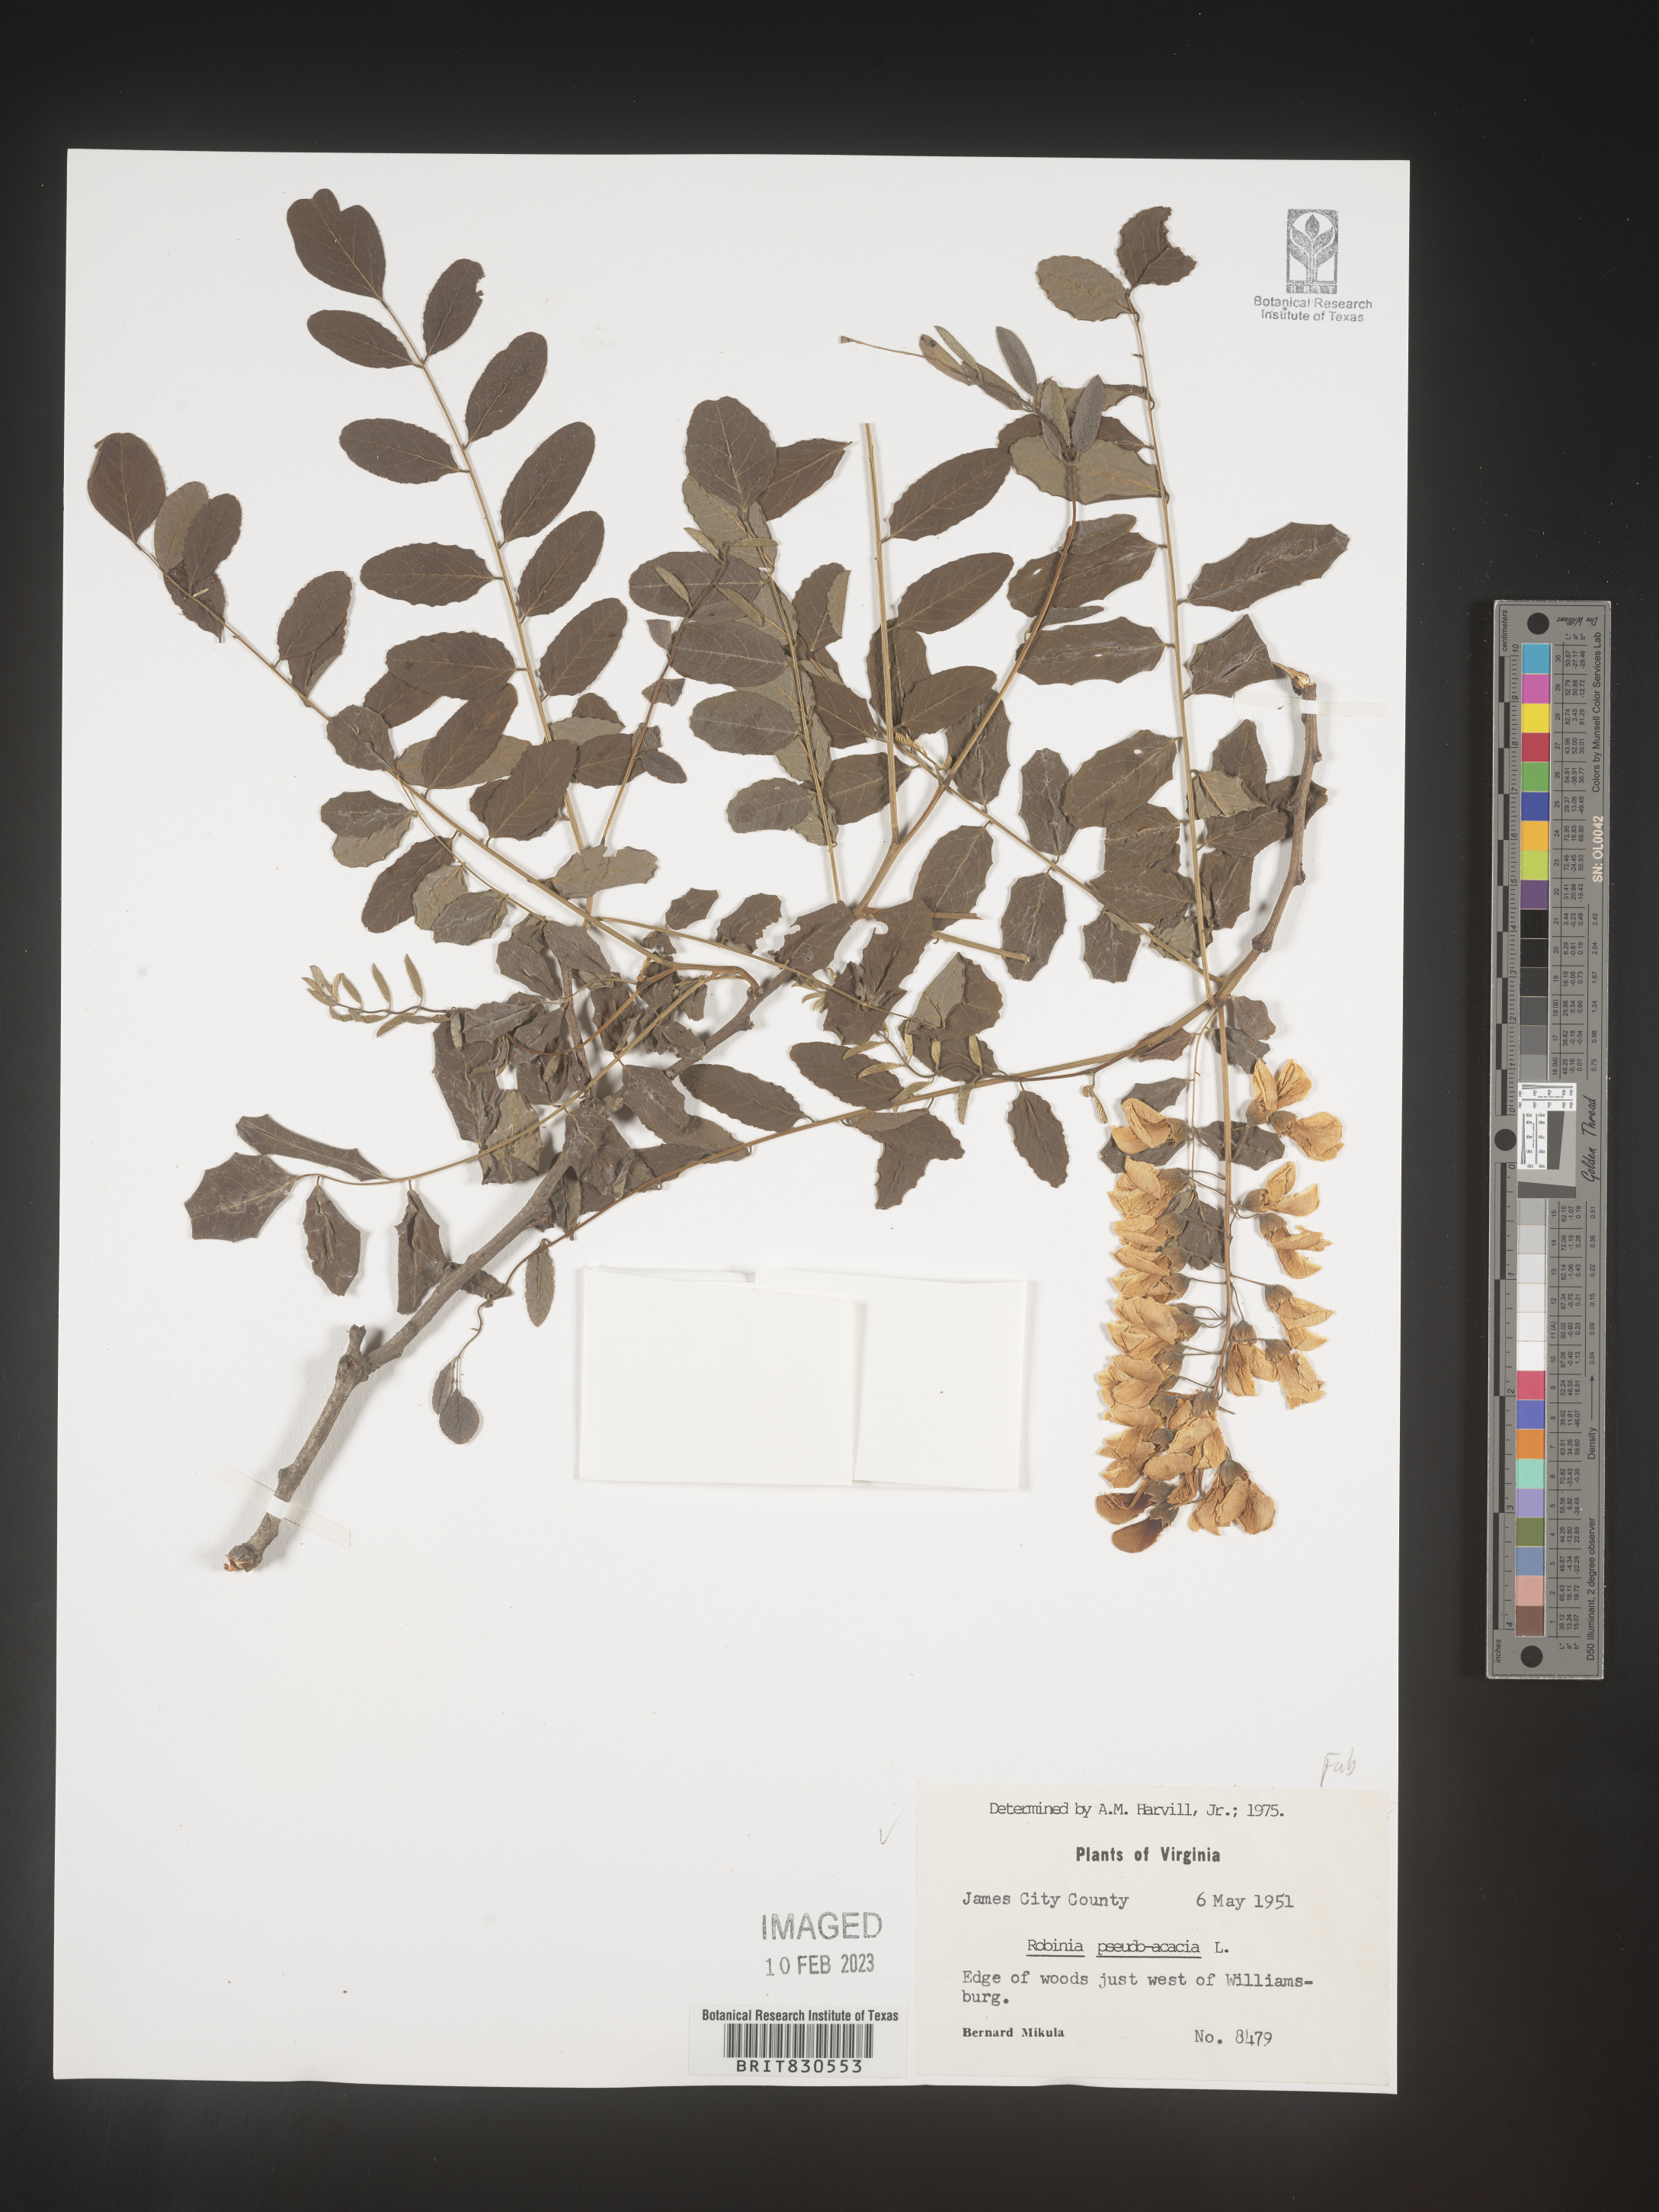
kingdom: Plantae
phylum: Tracheophyta
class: Magnoliopsida
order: Fabales
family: Fabaceae
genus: Robinia
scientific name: Robinia pseudoacacia
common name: Black locust
